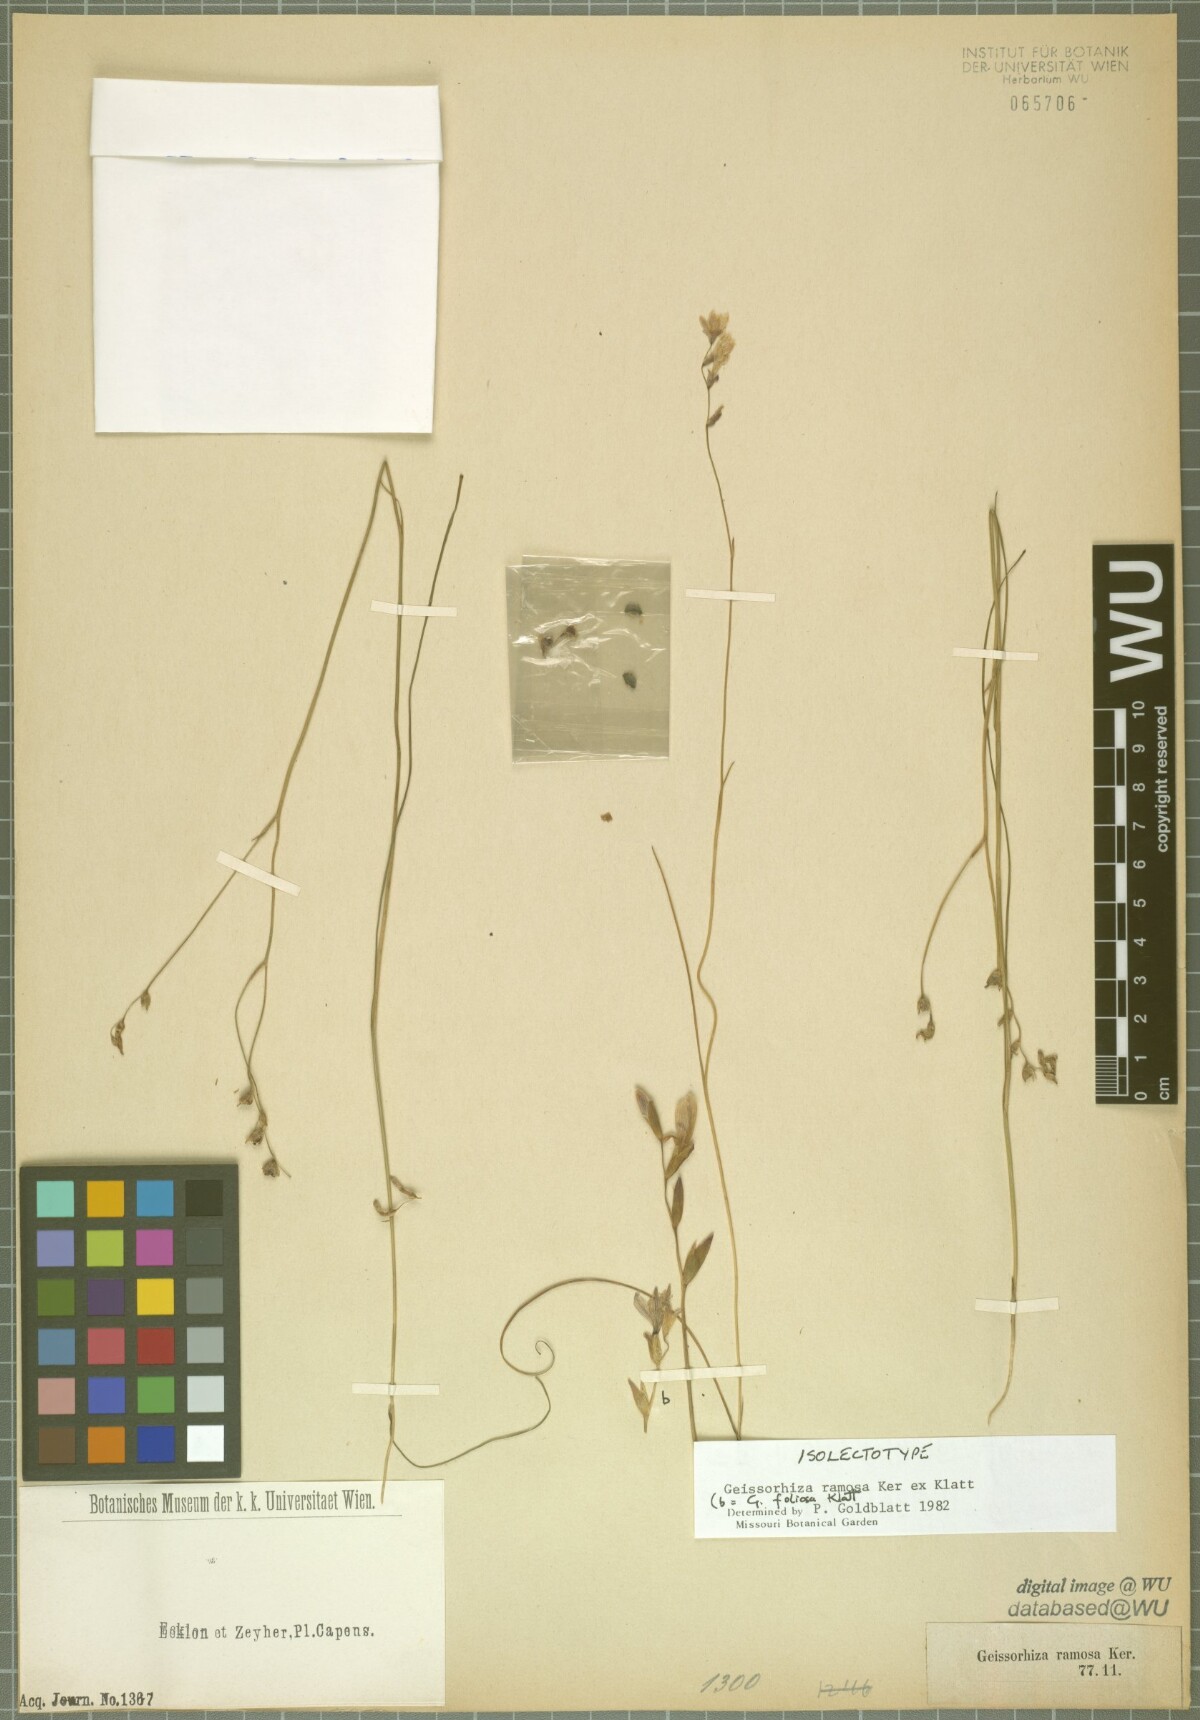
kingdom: Plantae
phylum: Tracheophyta
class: Liliopsida
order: Asparagales
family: Iridaceae
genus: Geissorhiza
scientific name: Geissorhiza ramosa
